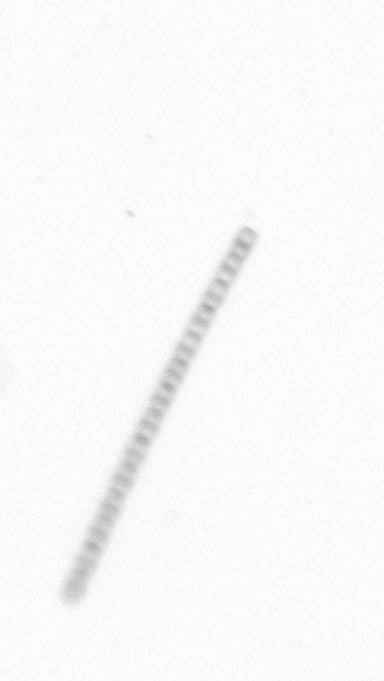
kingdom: Chromista
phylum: Ochrophyta
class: Bacillariophyceae
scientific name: Bacillariophyceae
